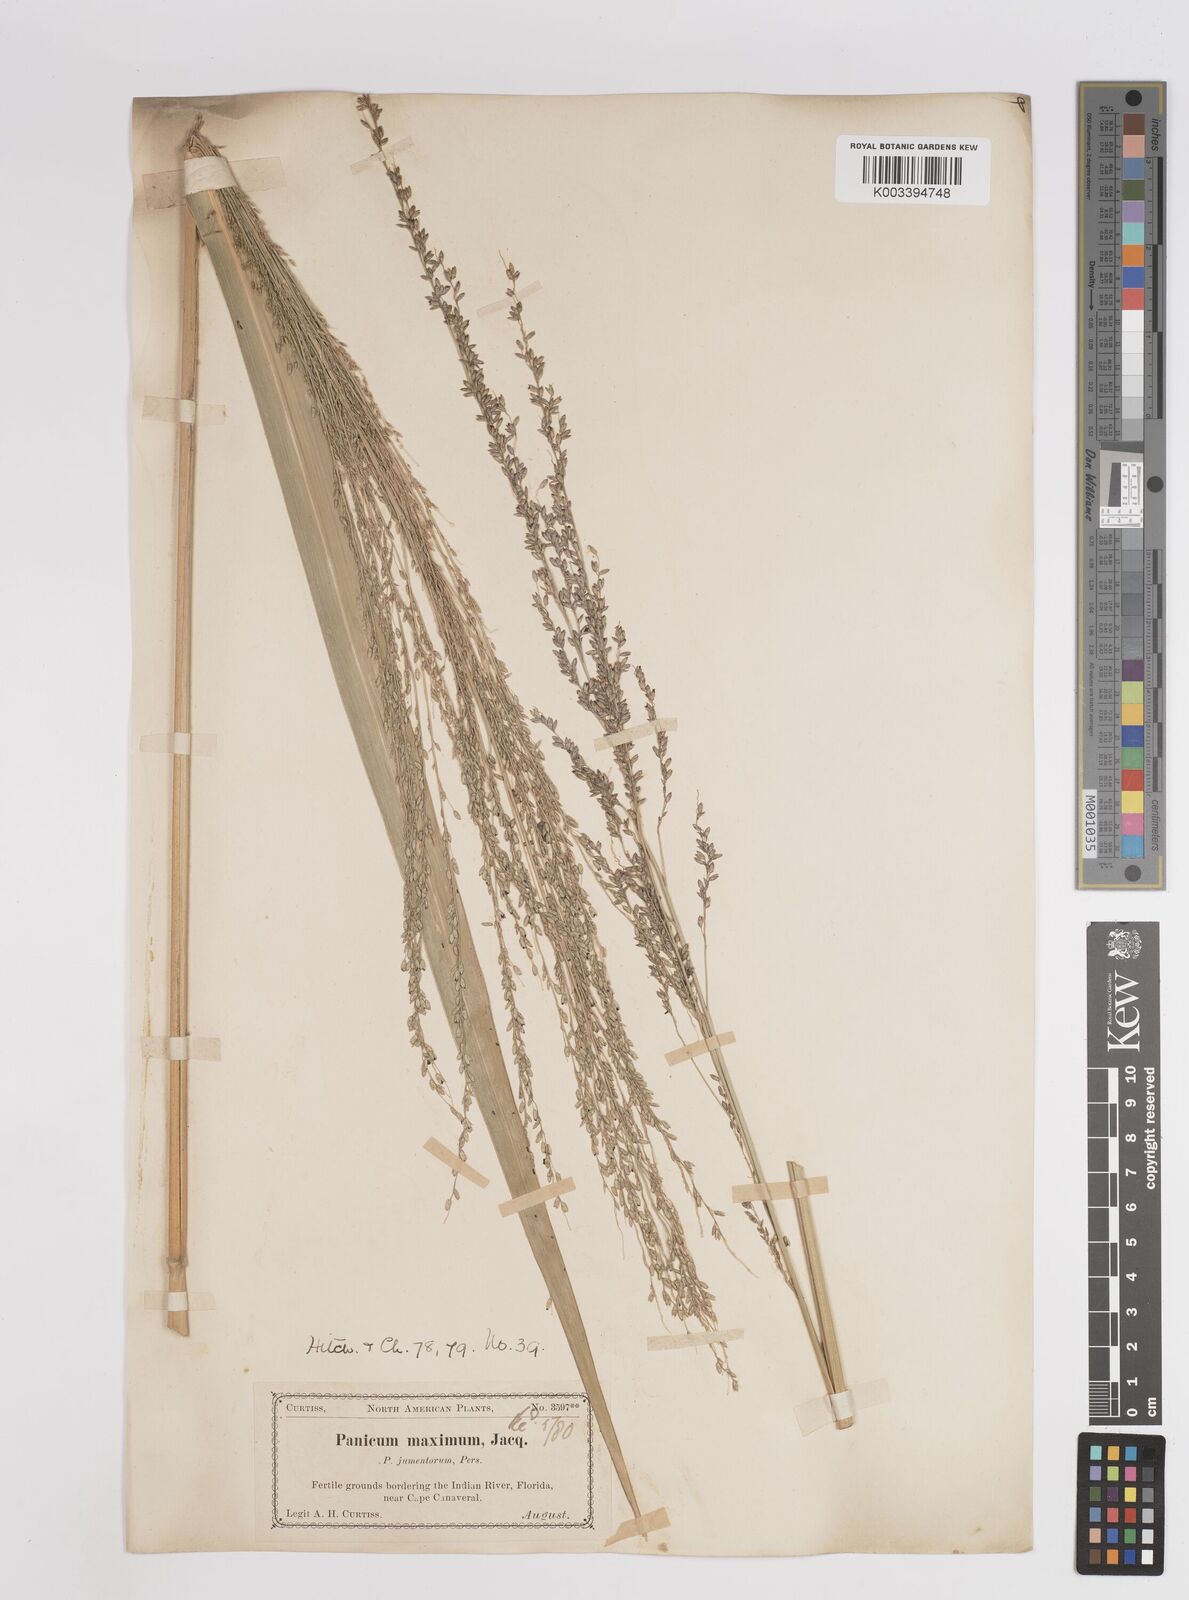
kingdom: Plantae
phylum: Tracheophyta
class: Liliopsida
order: Poales
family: Poaceae
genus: Megathyrsus
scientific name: Megathyrsus maximus
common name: Guineagrass
